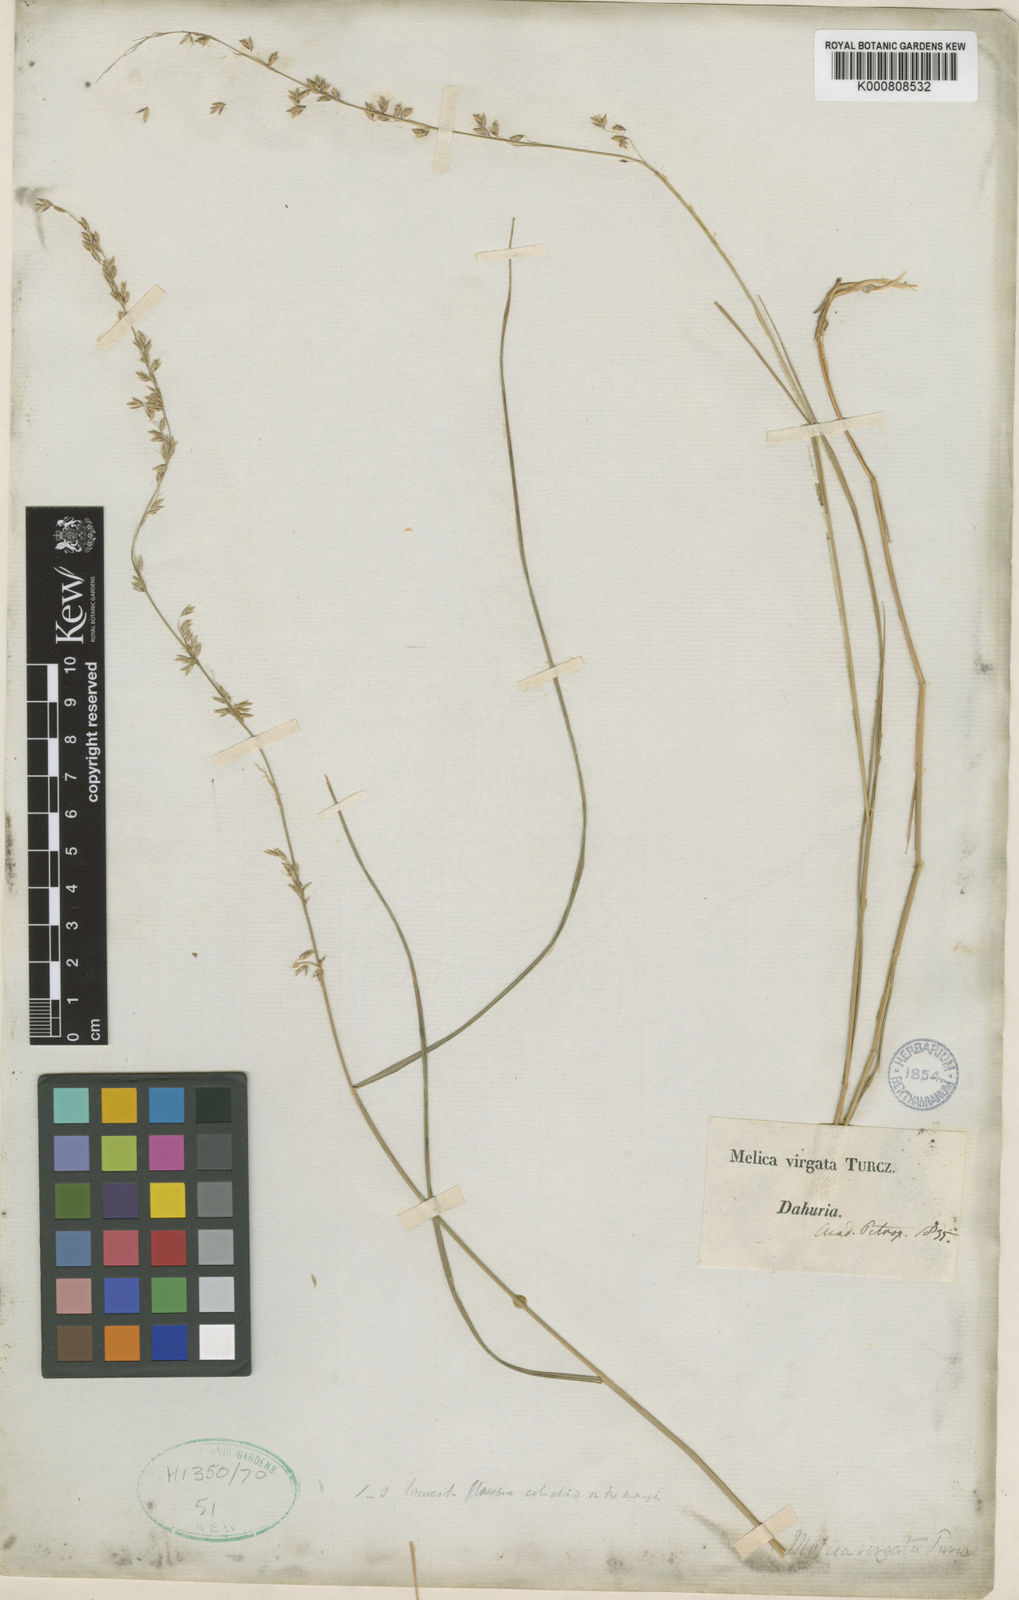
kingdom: Plantae
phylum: Tracheophyta
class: Liliopsida
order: Poales
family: Poaceae
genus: Melica
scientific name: Melica virgata
